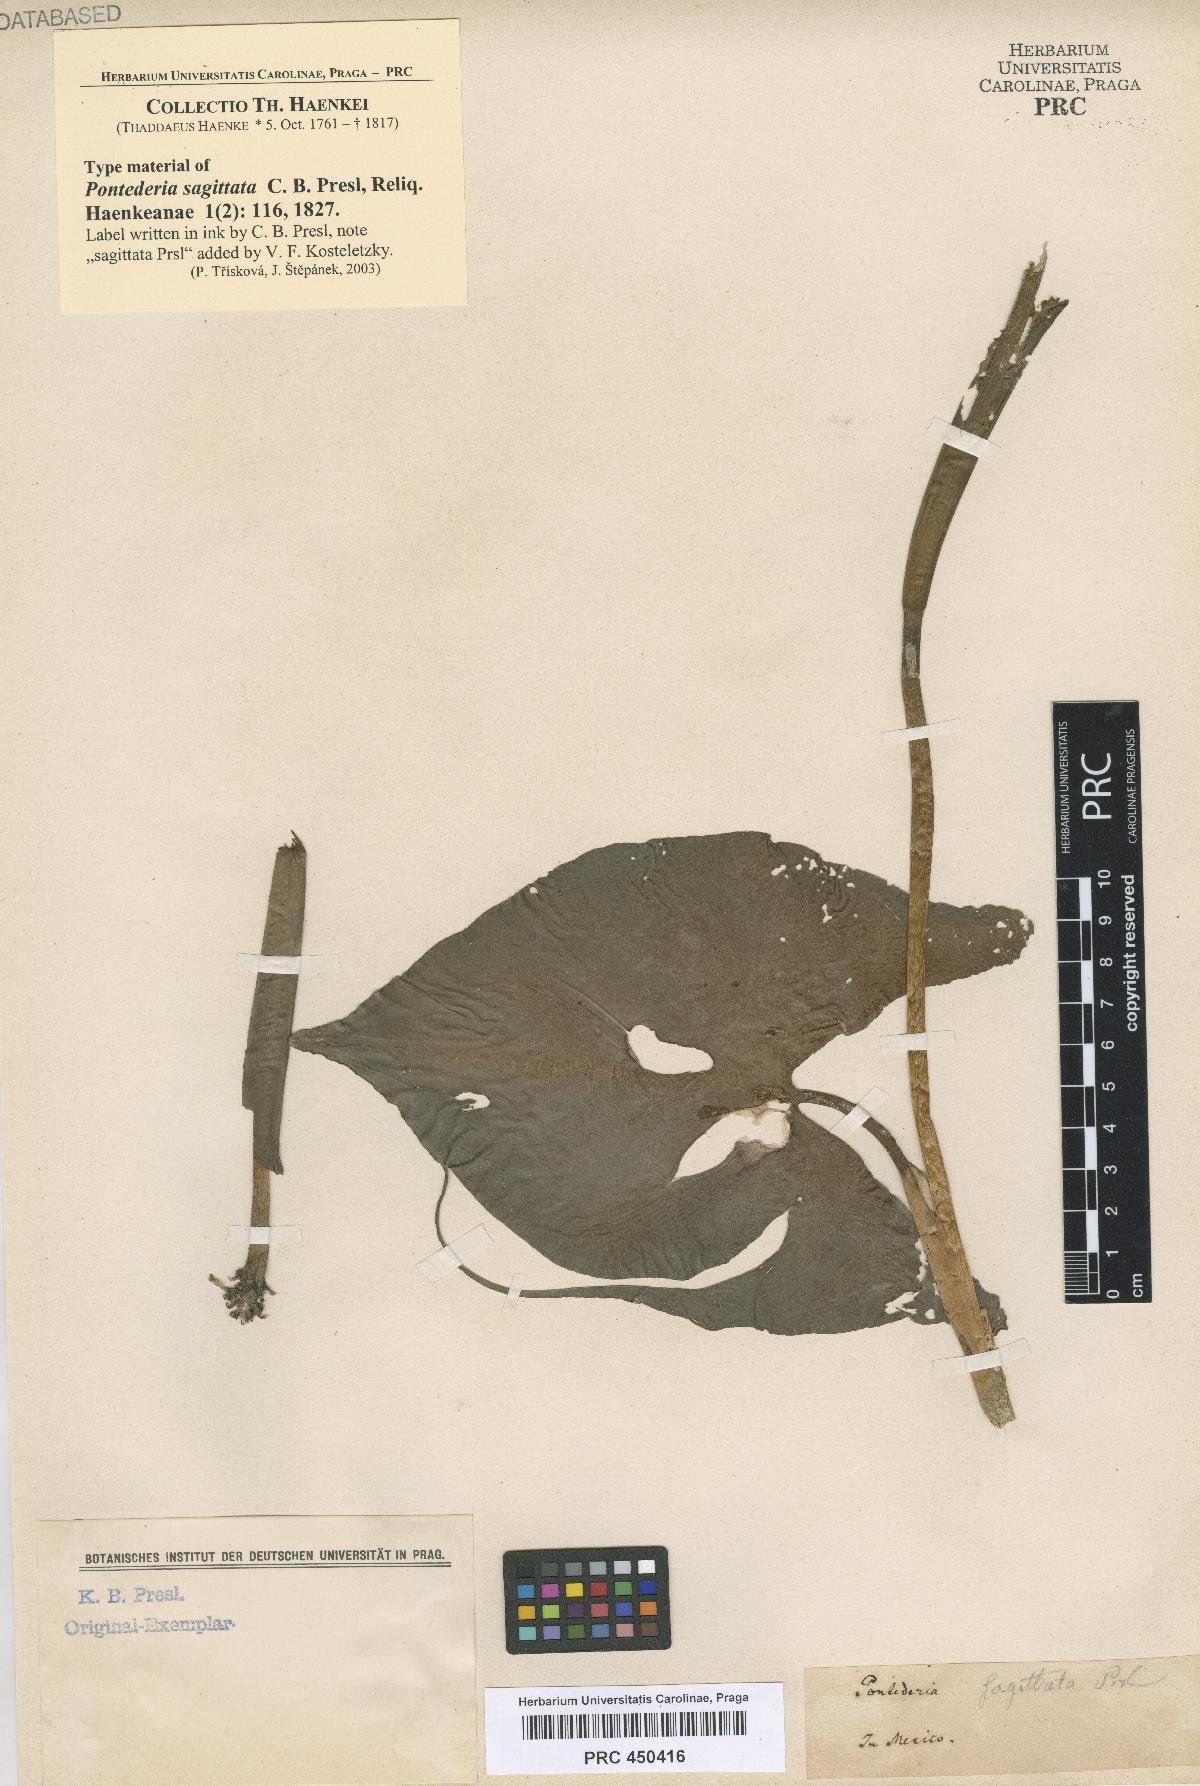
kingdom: Plantae
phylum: Tracheophyta
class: Liliopsida
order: Commelinales
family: Pontederiaceae
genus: Pontederia
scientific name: Pontederia sagittata
